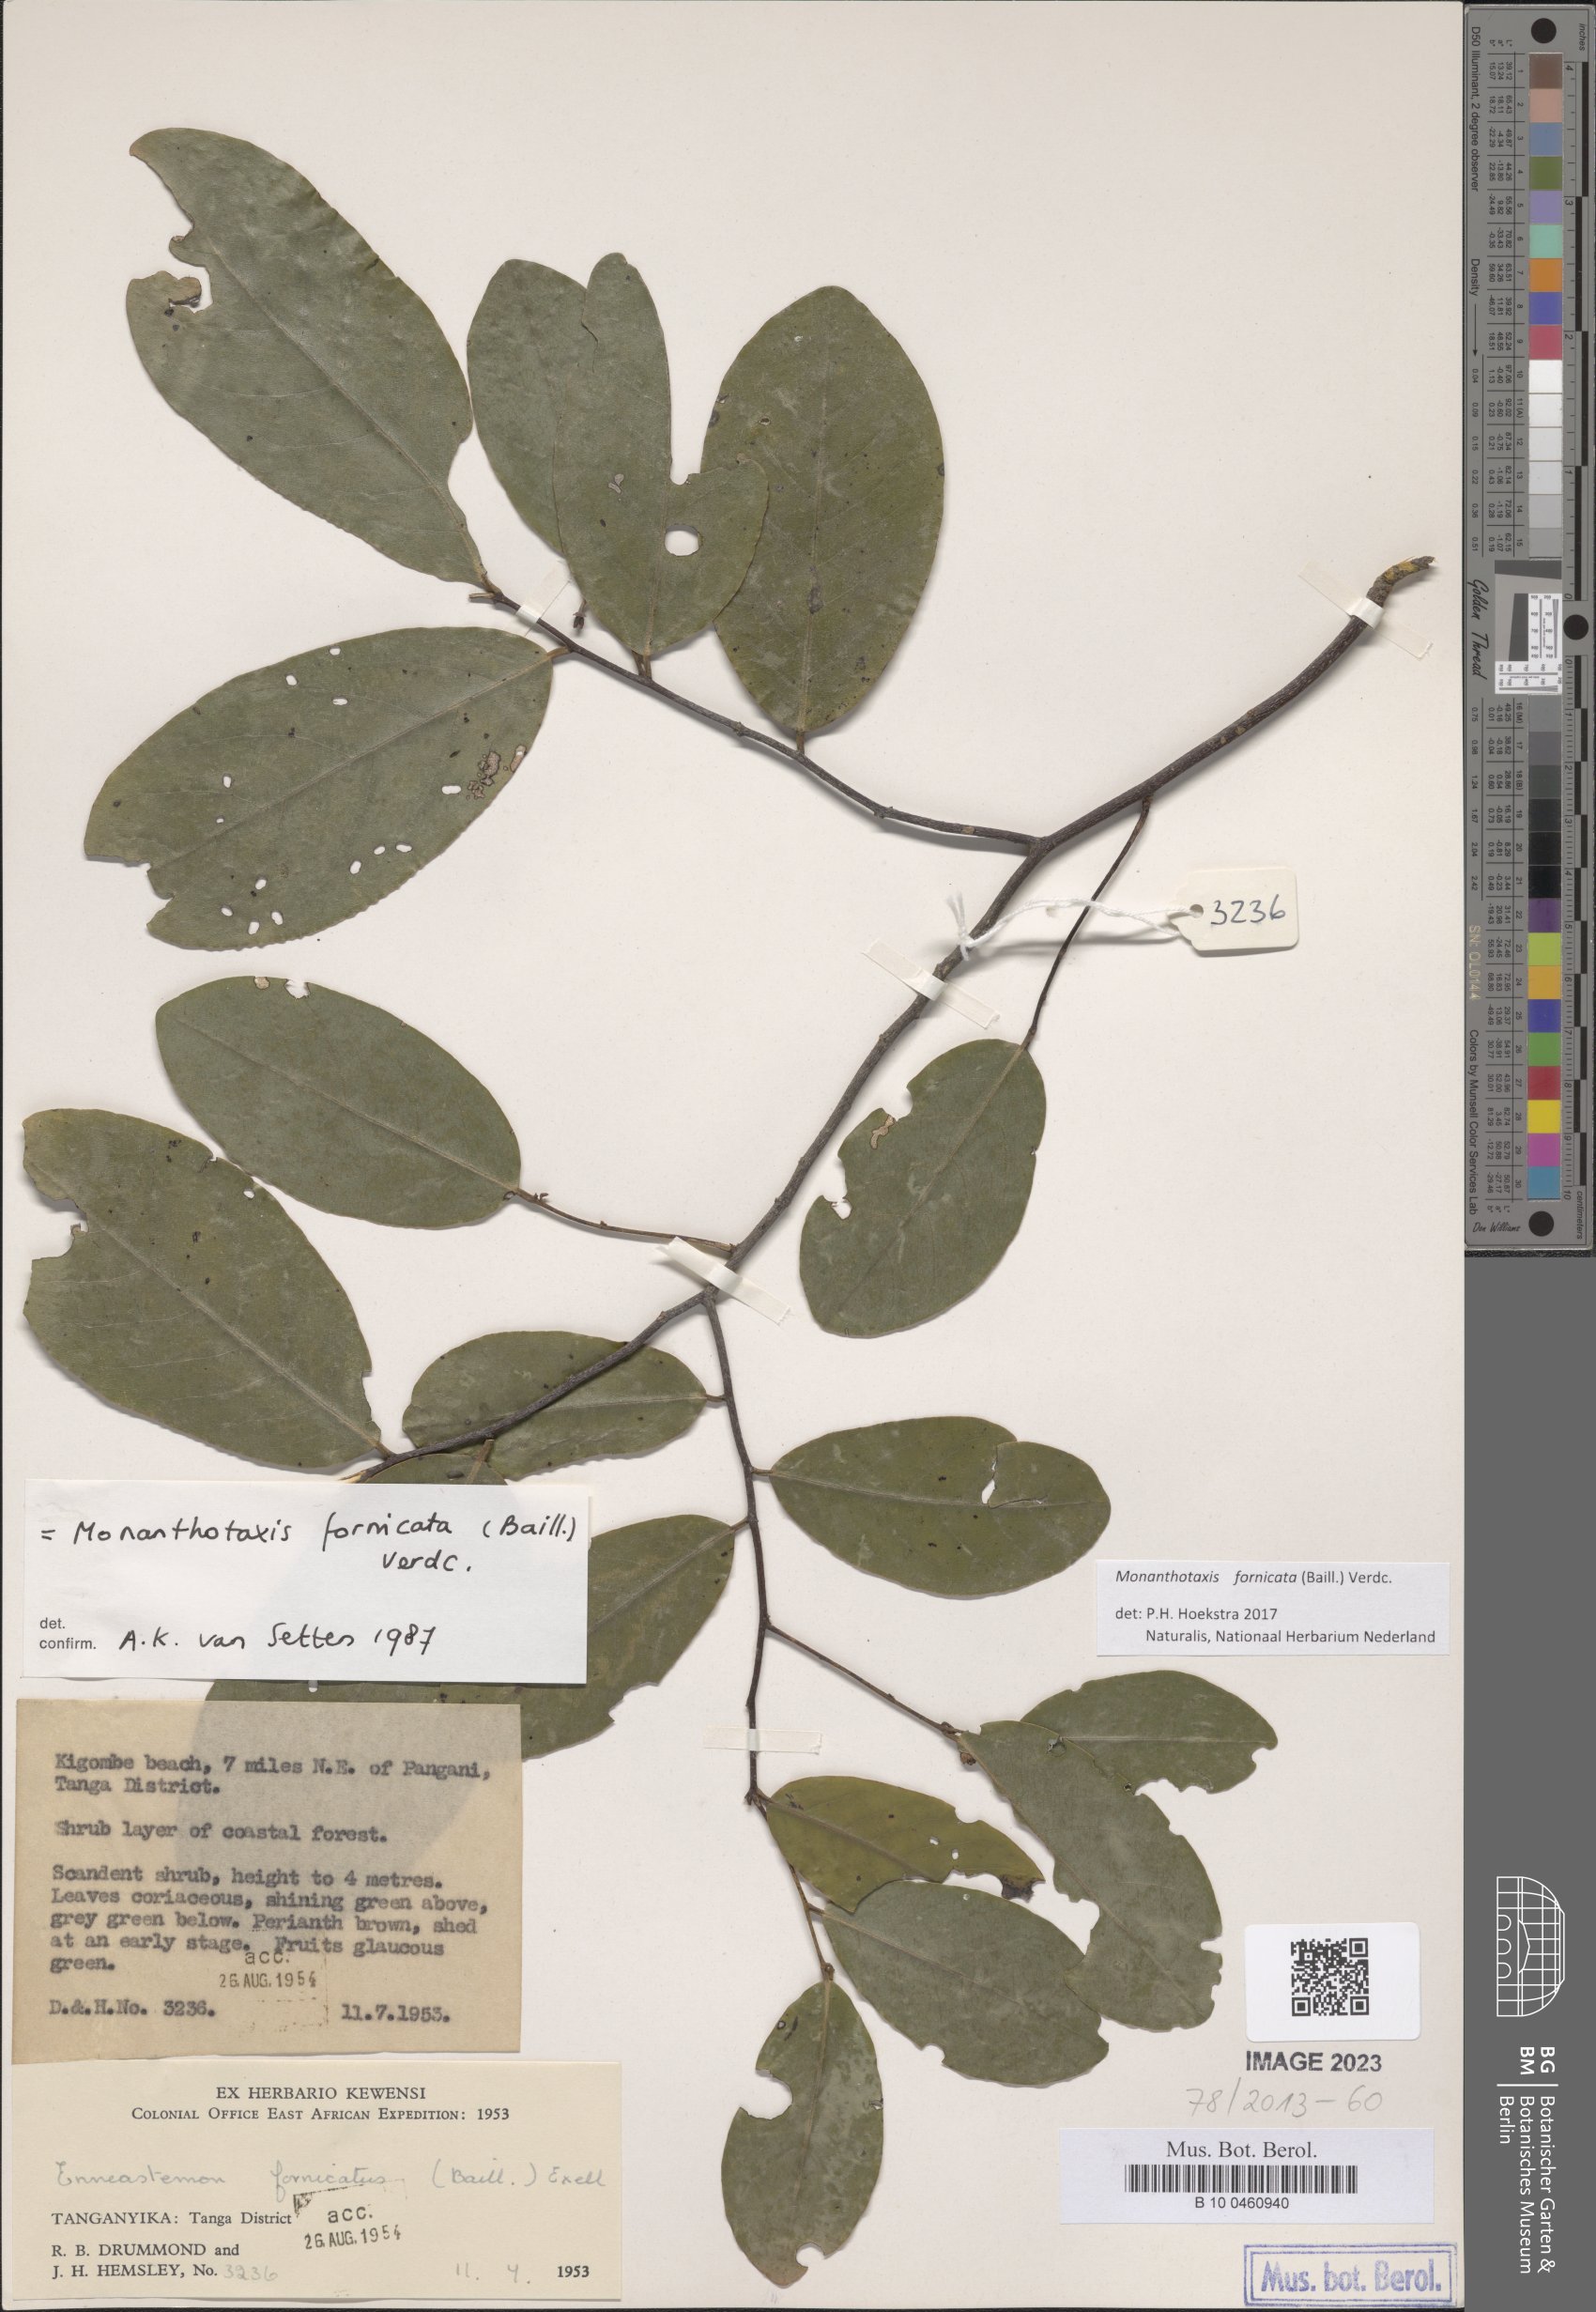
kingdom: Plantae
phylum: Tracheophyta
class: Magnoliopsida
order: Magnoliales
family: Annonaceae
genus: Monanthotaxis
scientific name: Monanthotaxis fornicata
